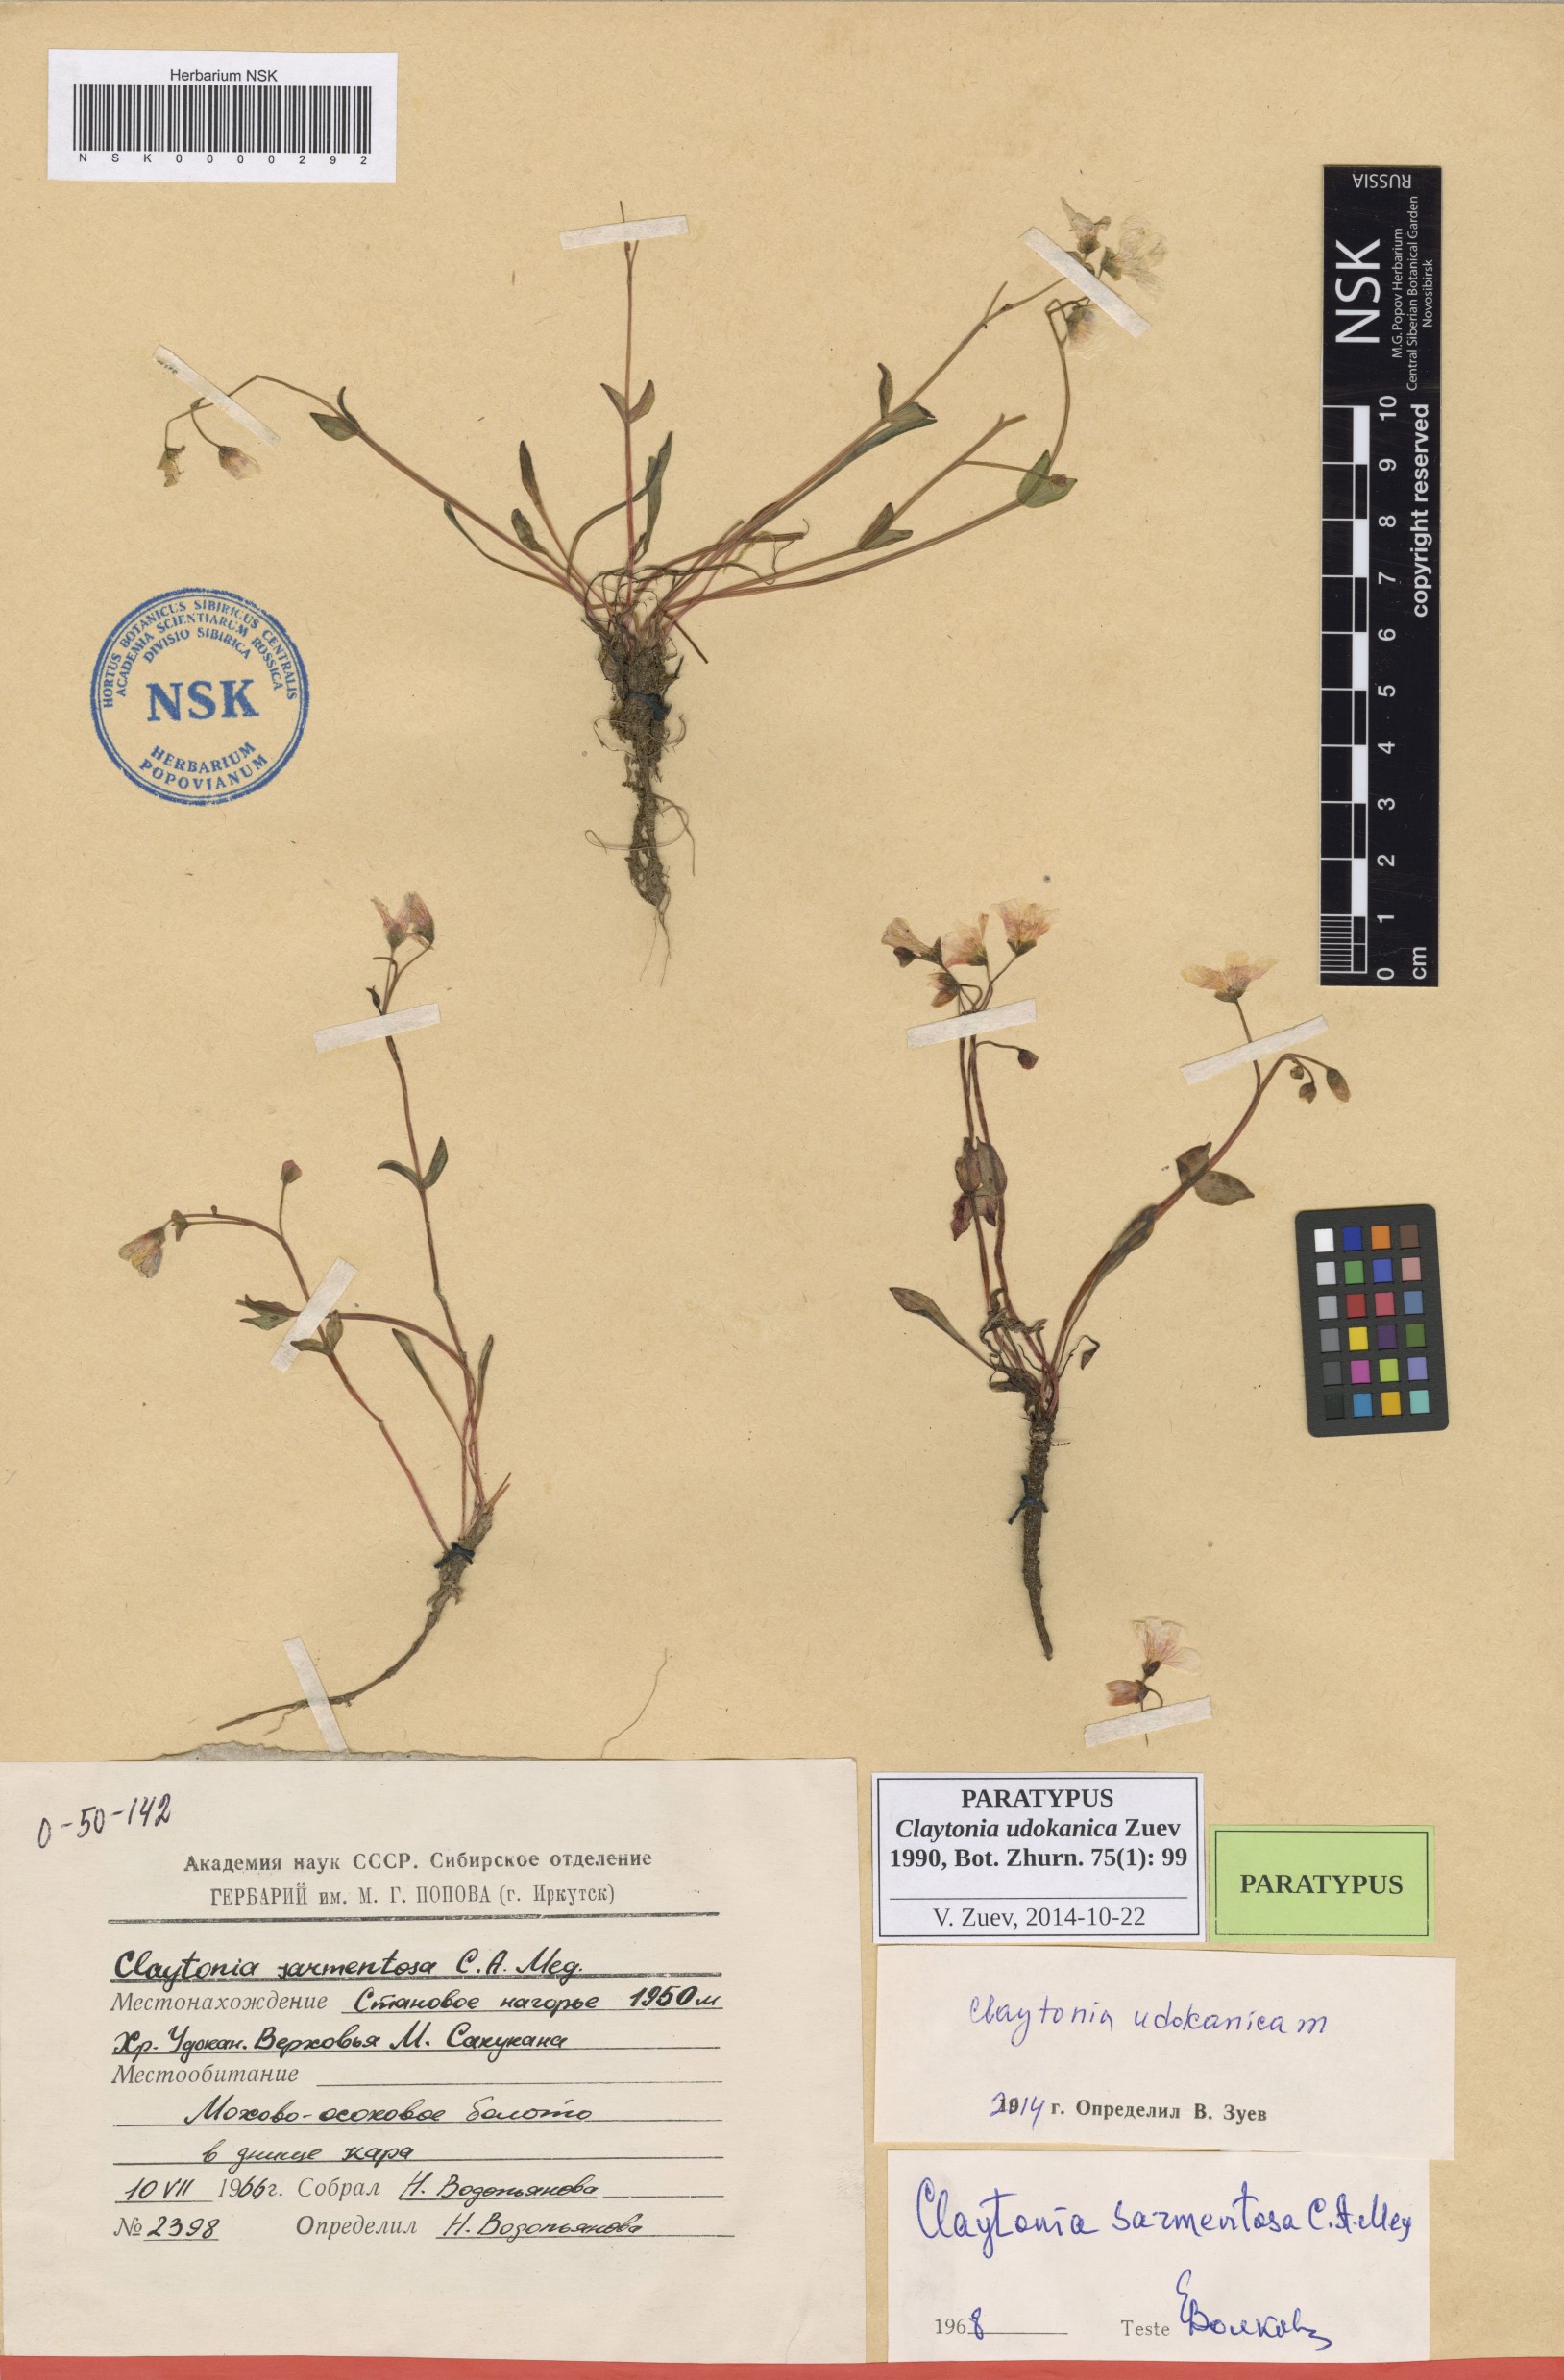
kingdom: Plantae
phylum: Tracheophyta
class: Magnoliopsida
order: Caryophyllales
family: Montiaceae
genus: Claytonia
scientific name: Claytonia udokanica
